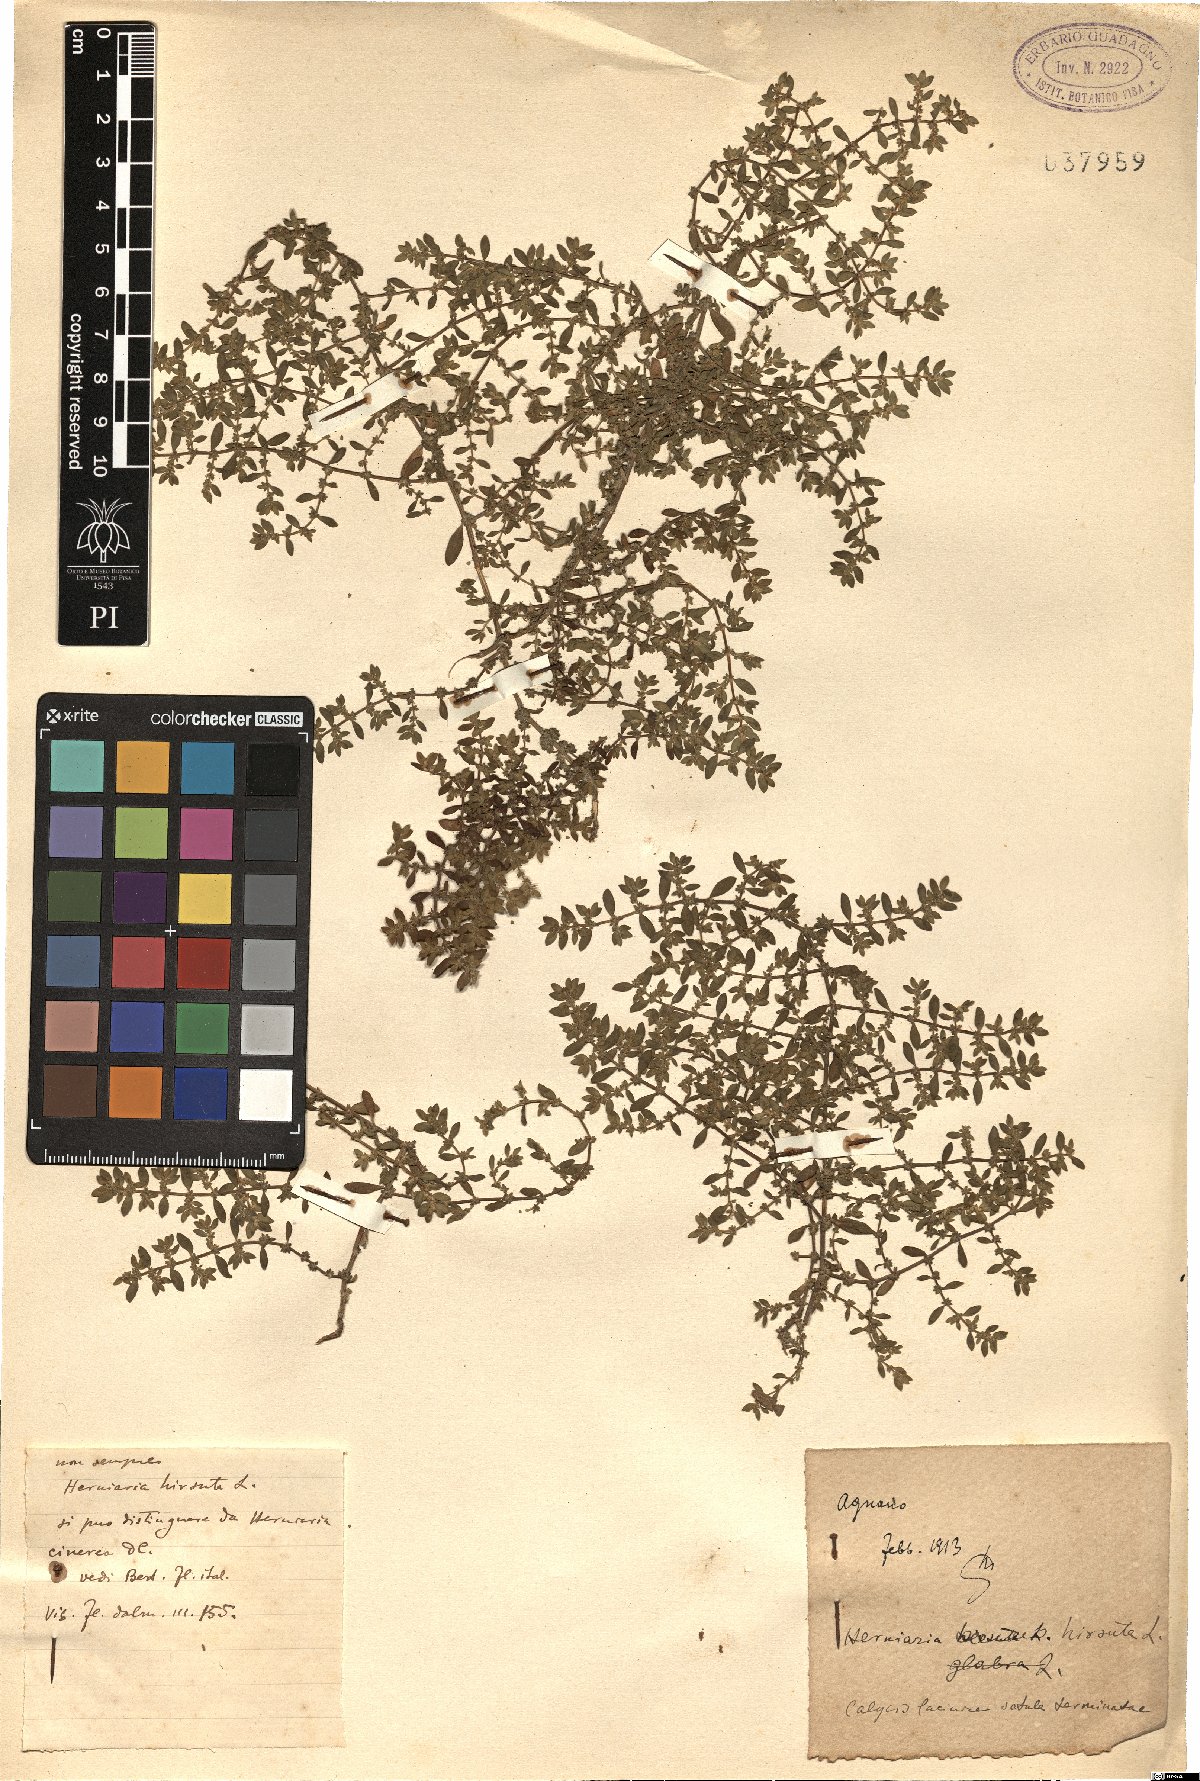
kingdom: Plantae
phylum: Tracheophyta
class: Magnoliopsida
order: Caryophyllales
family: Caryophyllaceae
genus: Herniaria
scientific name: Herniaria hirsuta
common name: Hairy rupturewort
